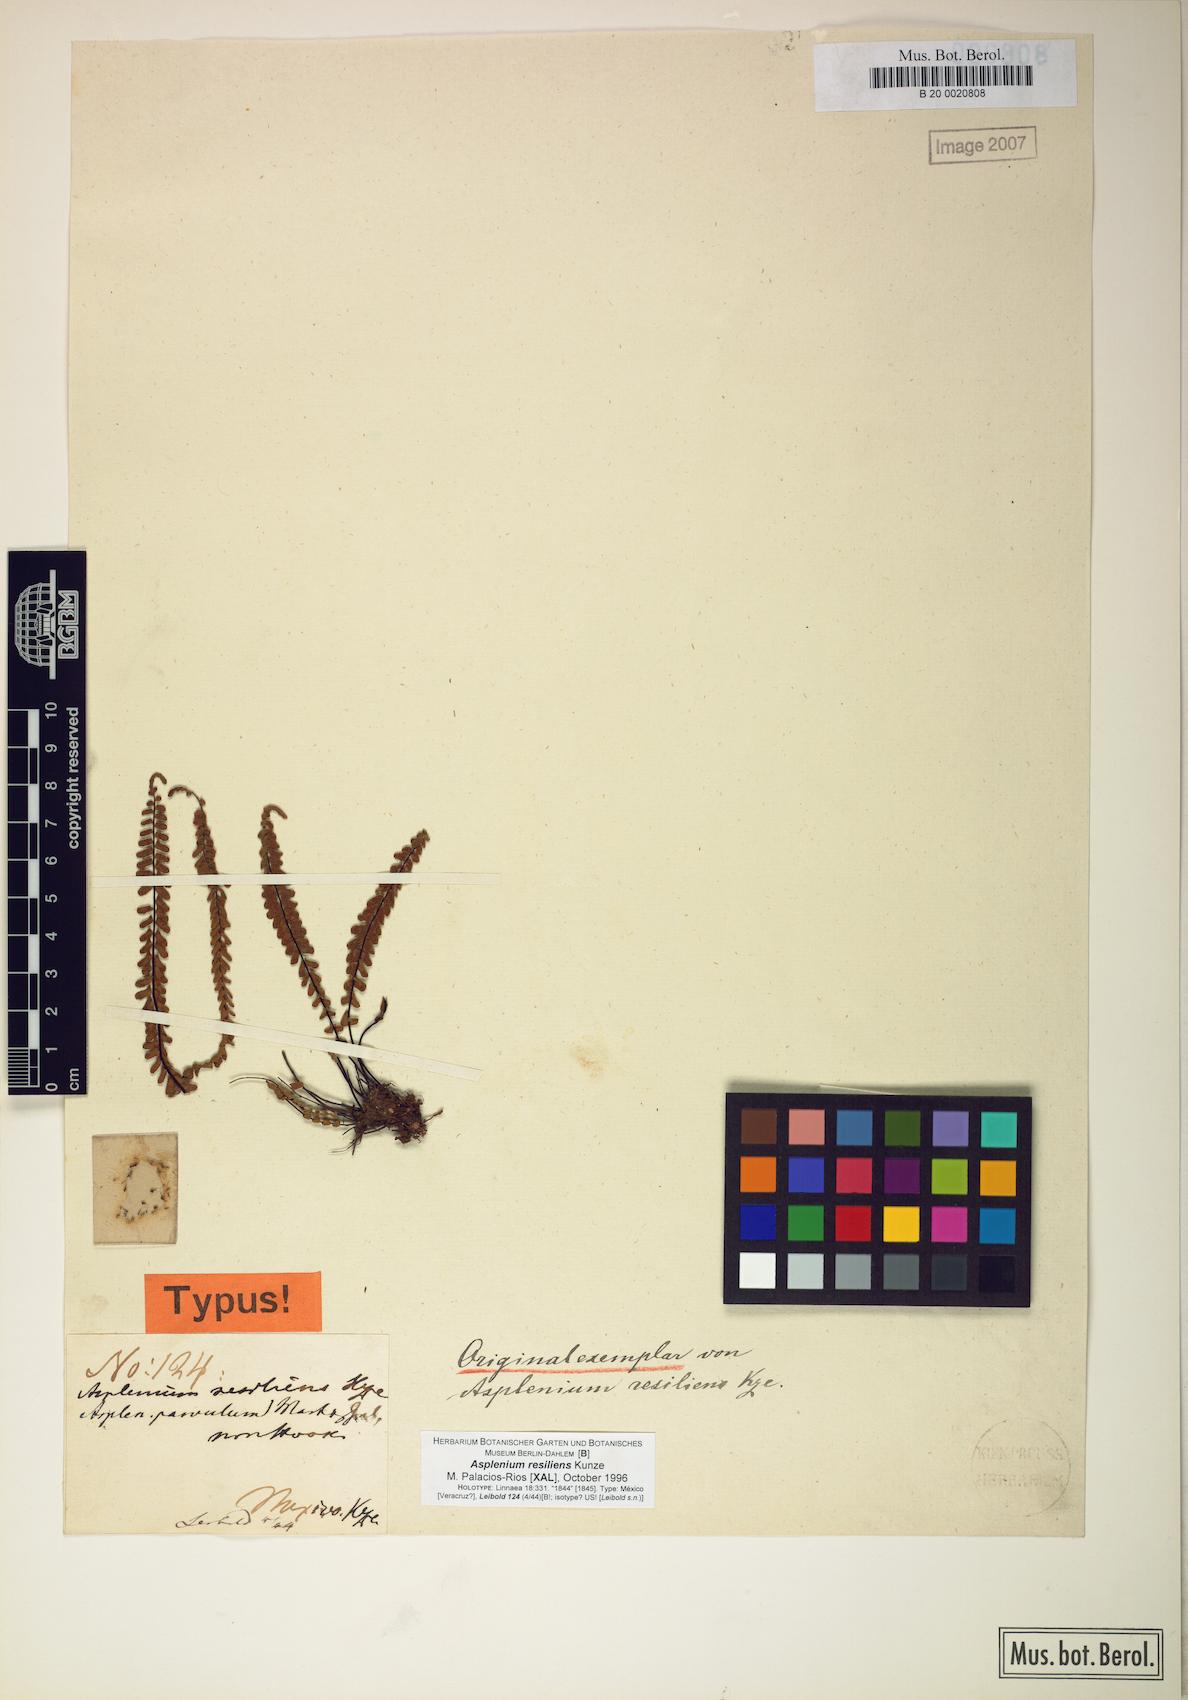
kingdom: Plantae
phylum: Tracheophyta
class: Polypodiopsida
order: Polypodiales
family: Aspleniaceae
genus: Asplenium
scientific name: Asplenium resiliens
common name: Blackstem spleenwort
